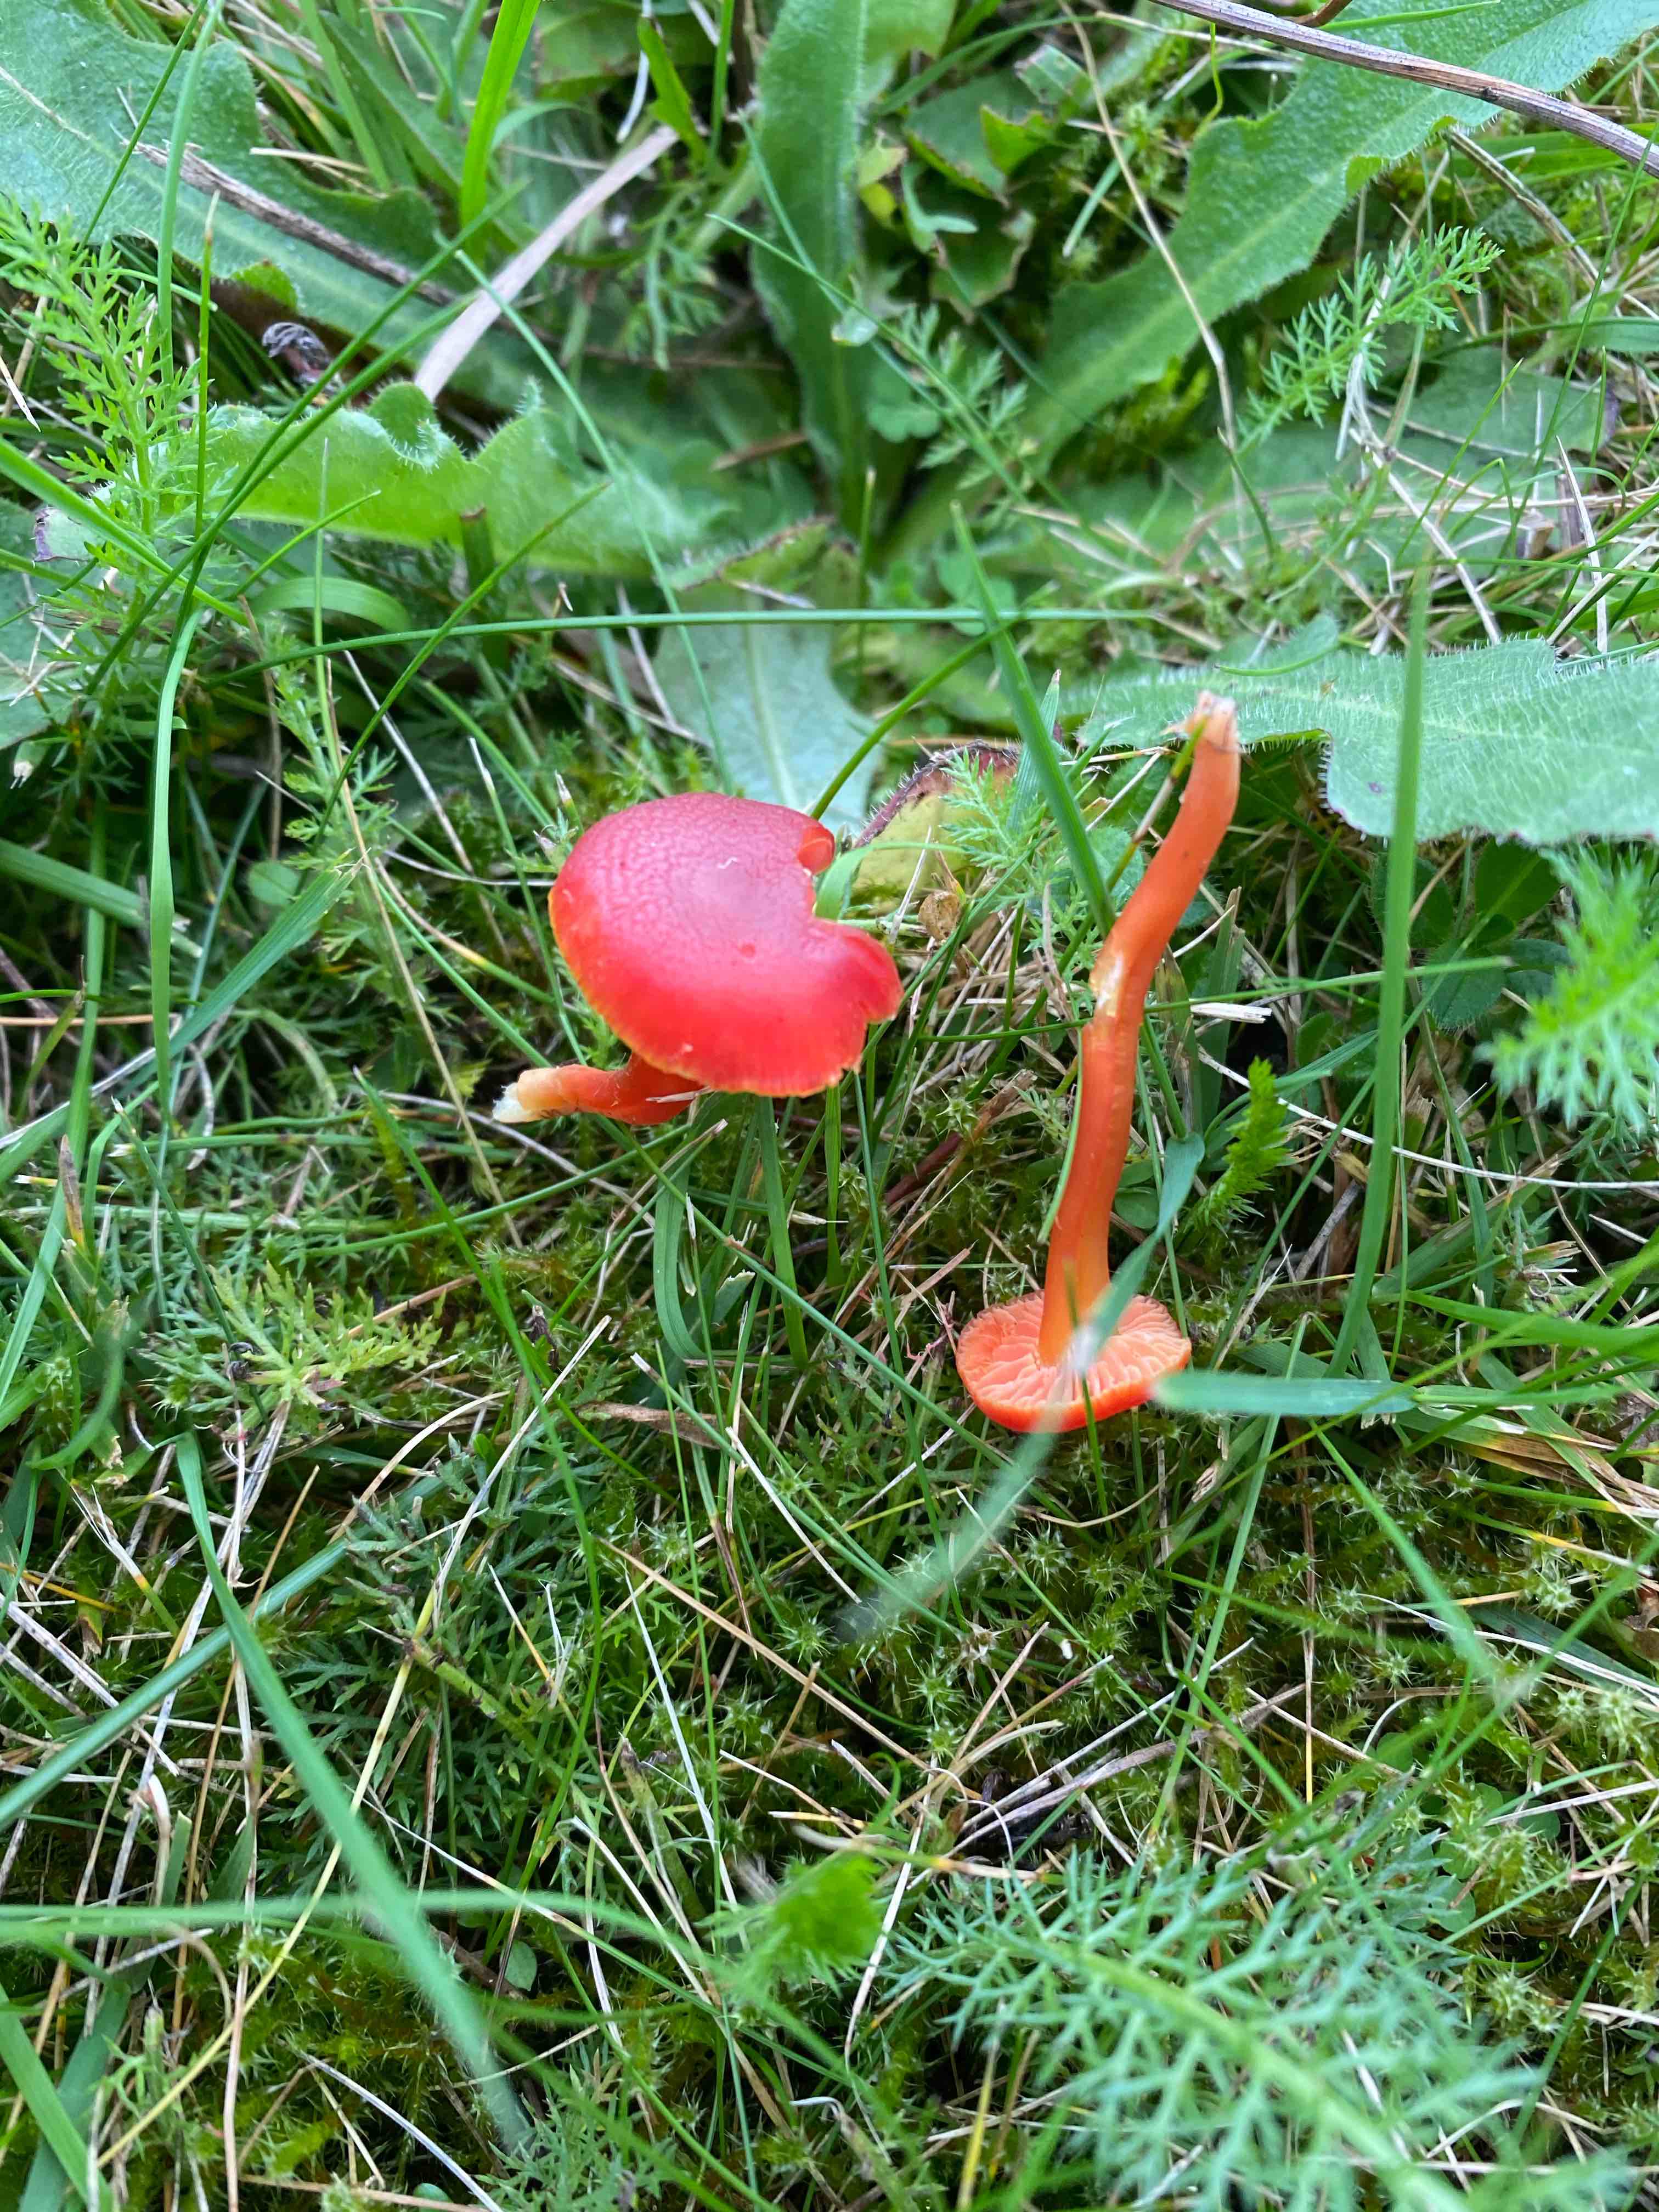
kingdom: Fungi
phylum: Basidiomycota
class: Agaricomycetes
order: Agaricales
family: Hygrophoraceae
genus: Hygrocybe
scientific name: Hygrocybe miniata
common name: mønje-vokshat
